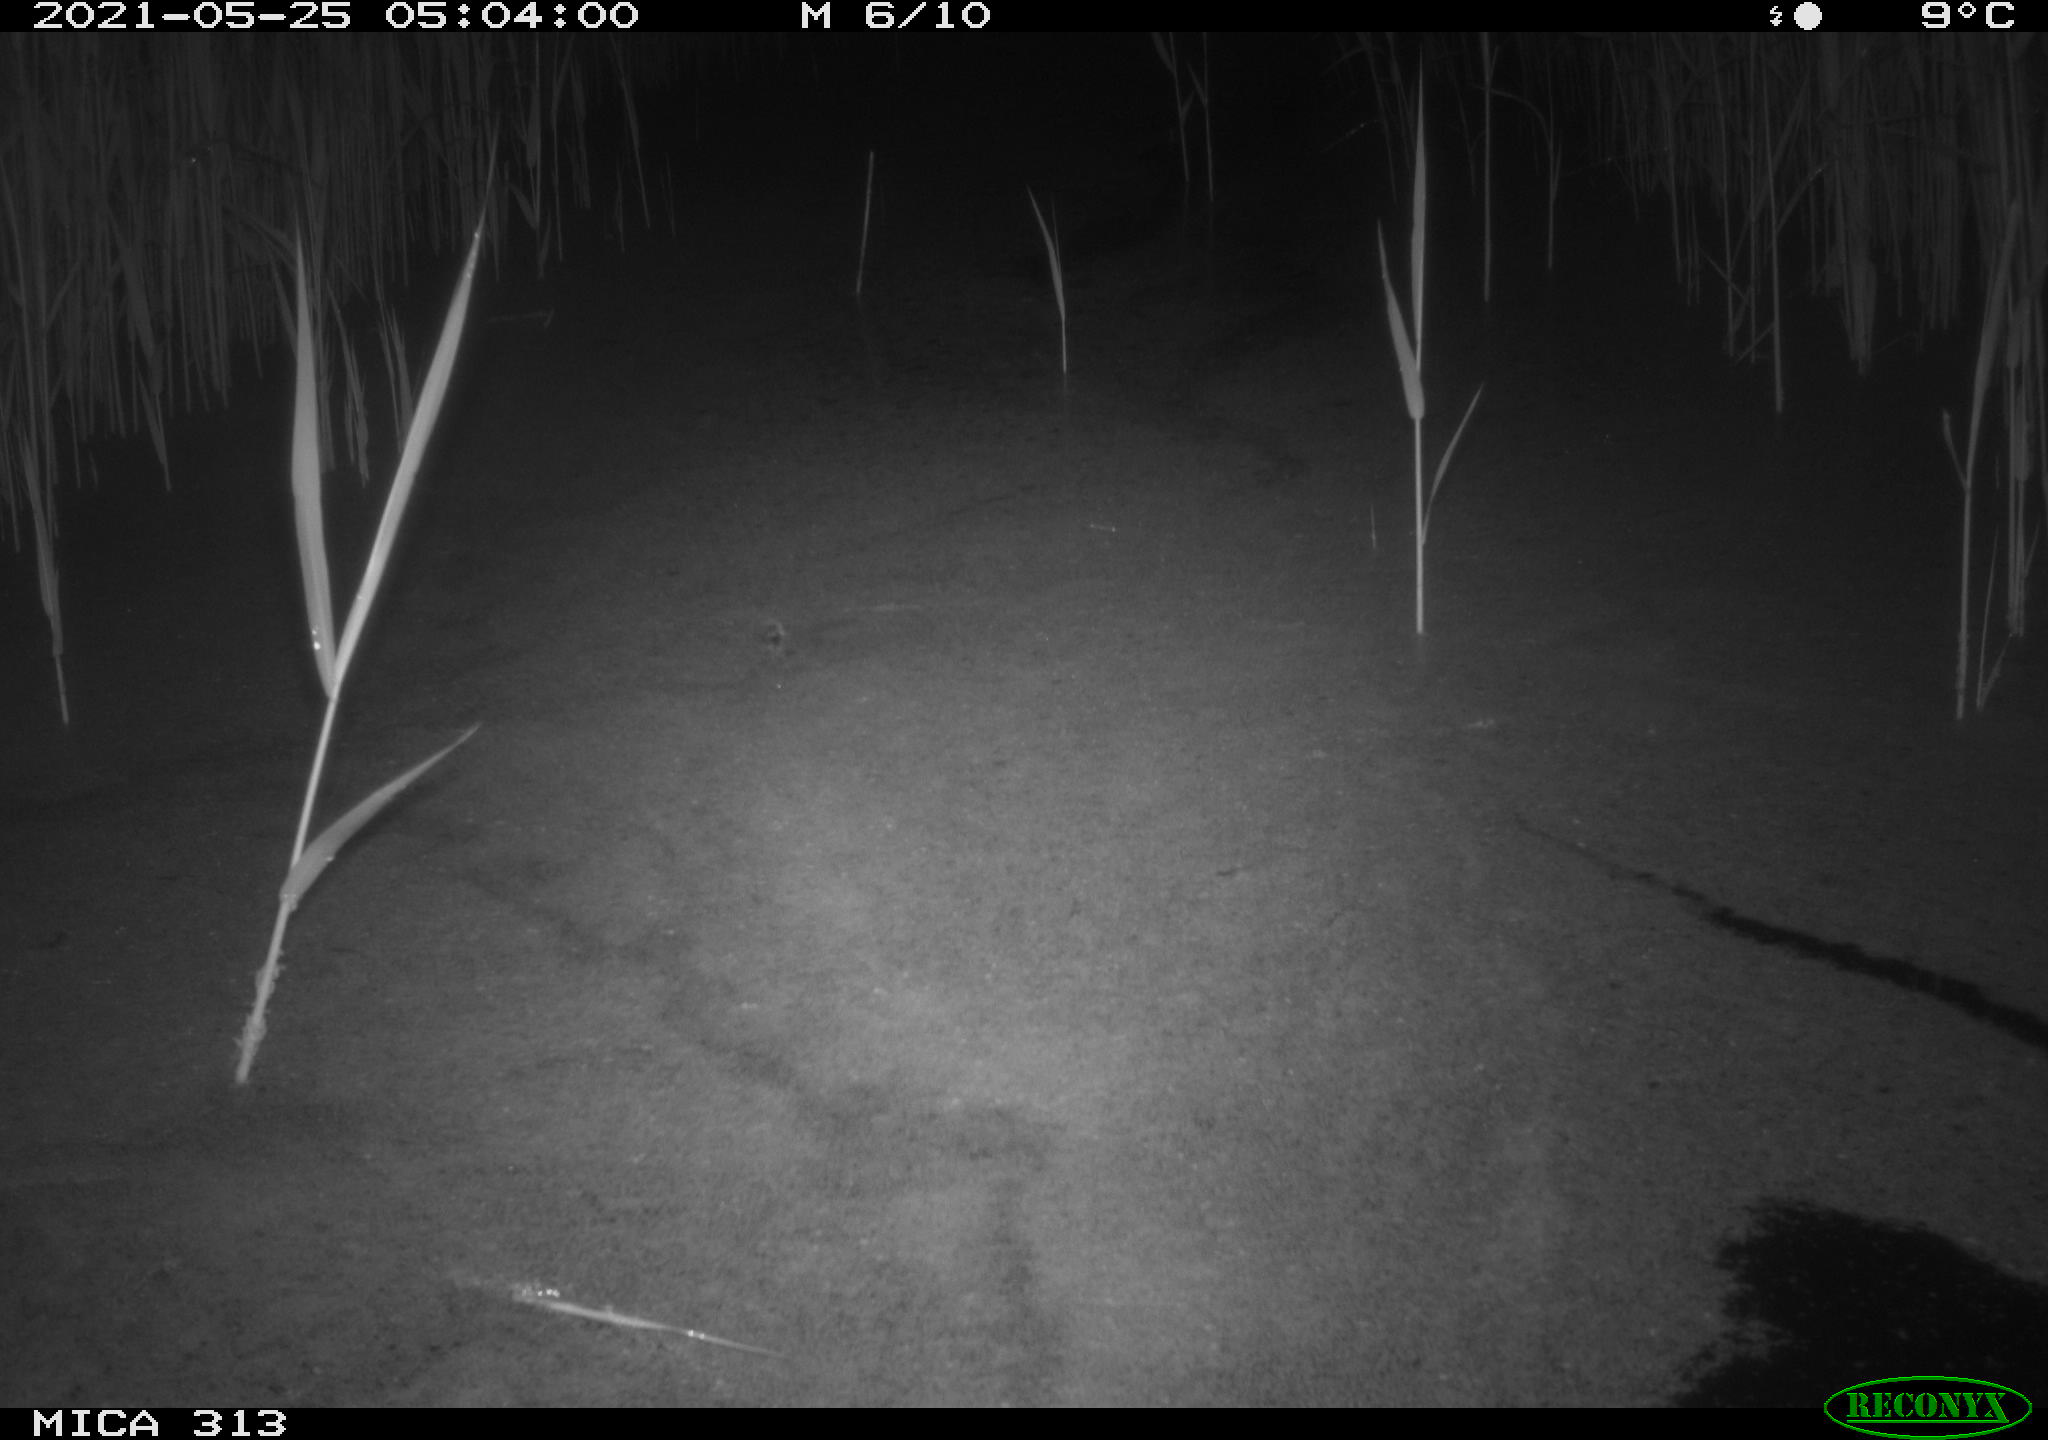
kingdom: Animalia
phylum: Chordata
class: Aves
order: Gruiformes
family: Rallidae
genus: Fulica
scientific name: Fulica atra
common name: Eurasian coot
